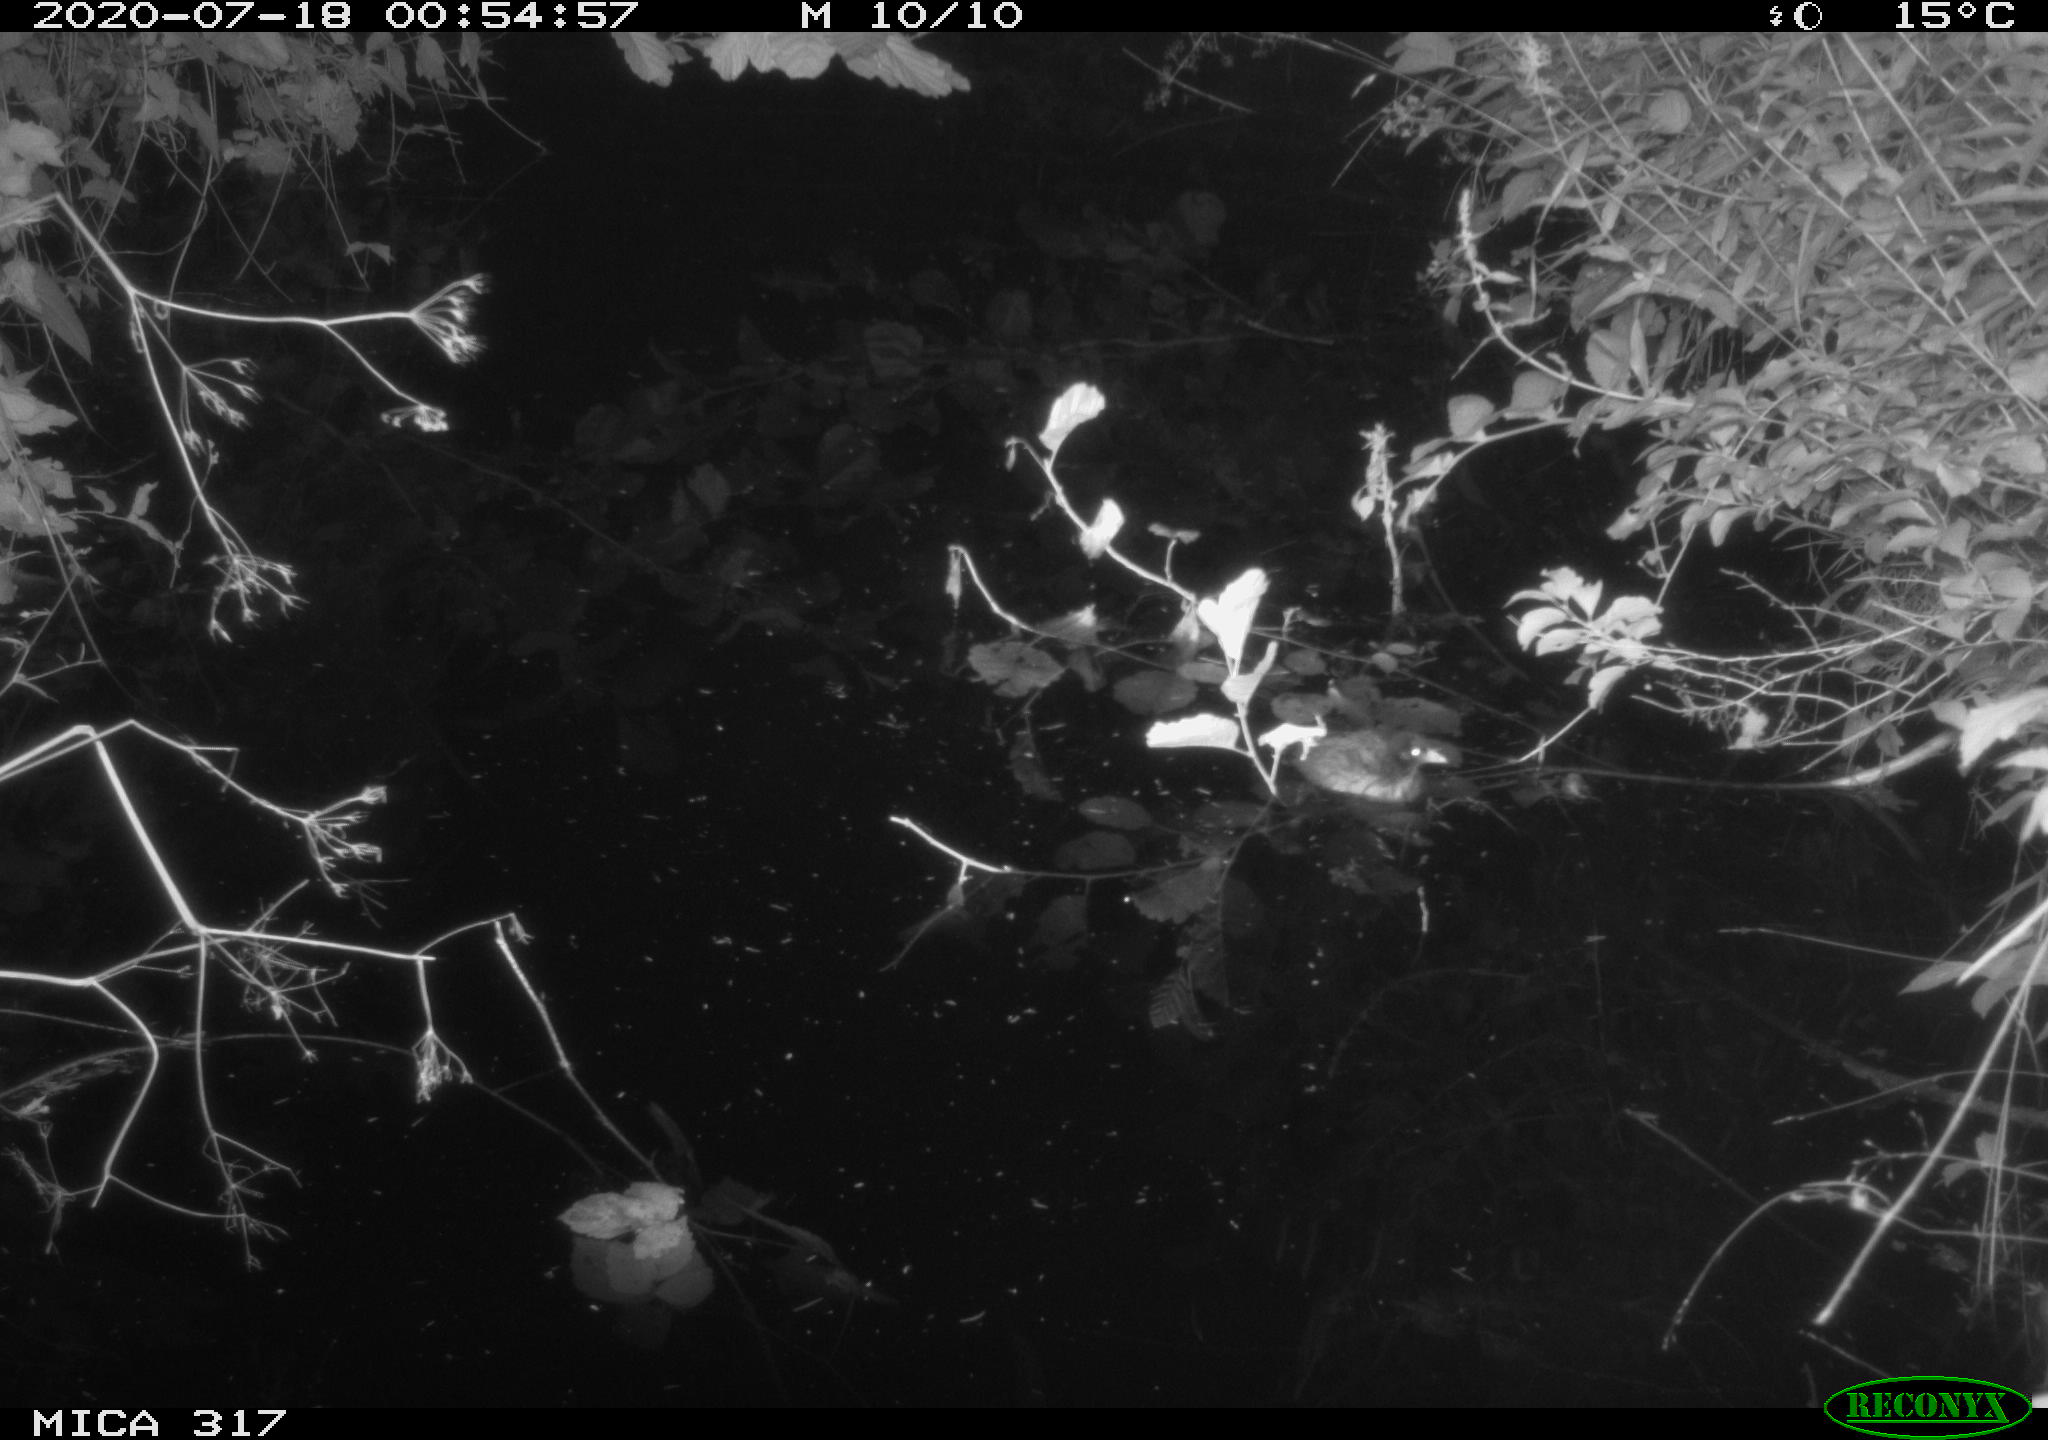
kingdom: Animalia
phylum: Chordata
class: Aves
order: Gruiformes
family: Rallidae
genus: Fulica
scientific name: Fulica atra
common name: Eurasian coot
